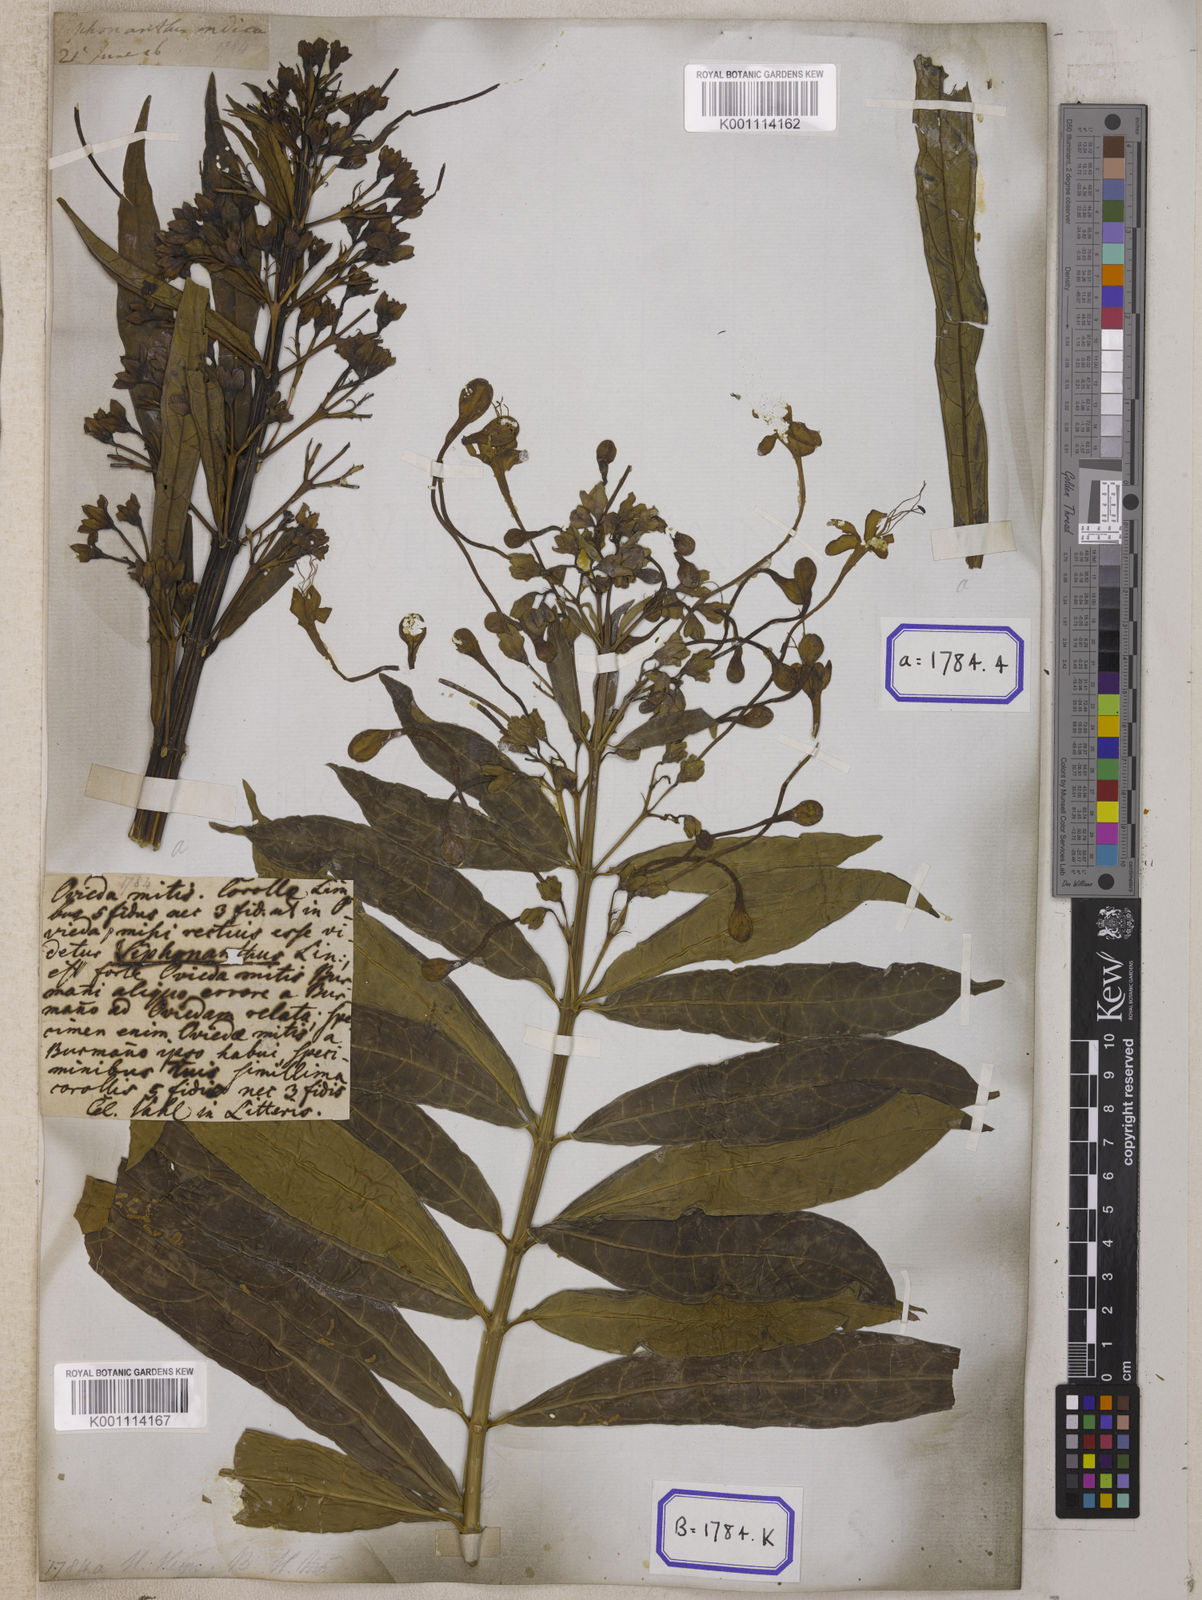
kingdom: Plantae
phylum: Tracheophyta
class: Magnoliopsida
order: Lamiales
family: Lamiaceae
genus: Clerodendrum
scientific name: Clerodendrum indicum
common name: Turk's turbin
